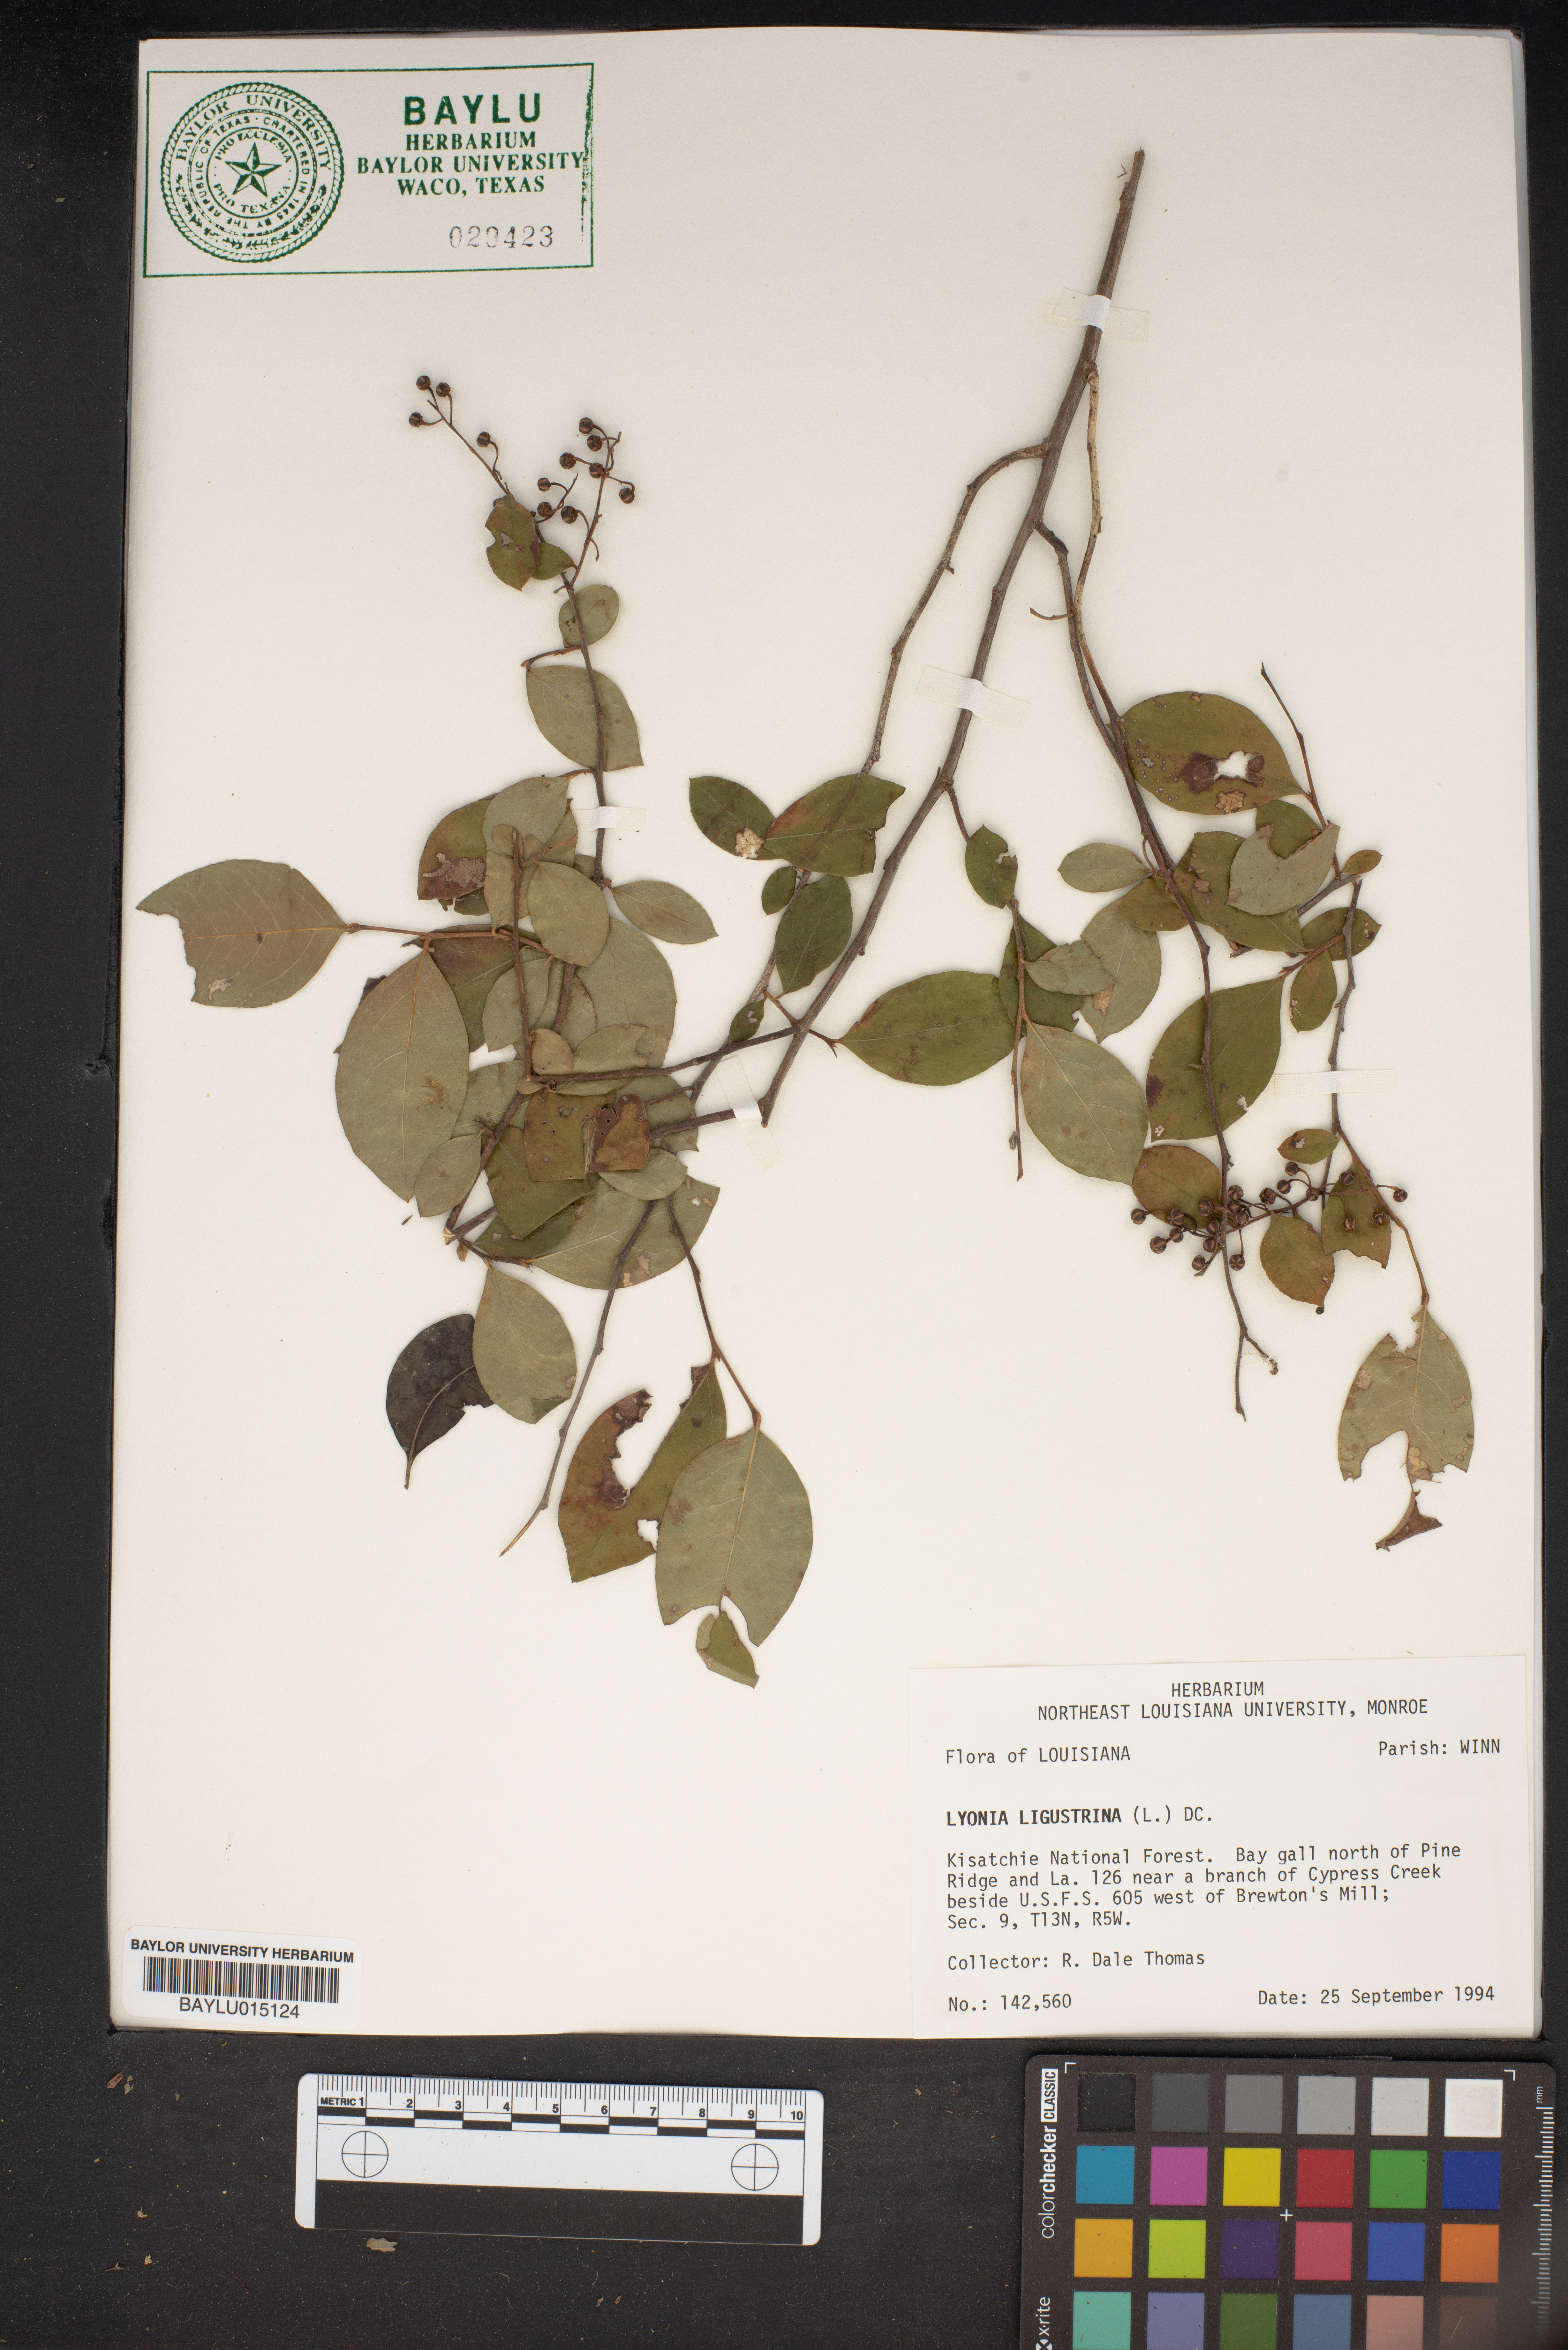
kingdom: Plantae
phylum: Tracheophyta
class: Magnoliopsida
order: Ericales
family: Ericaceae
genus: Lyonia
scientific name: Lyonia ligustrina
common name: Maleberry
